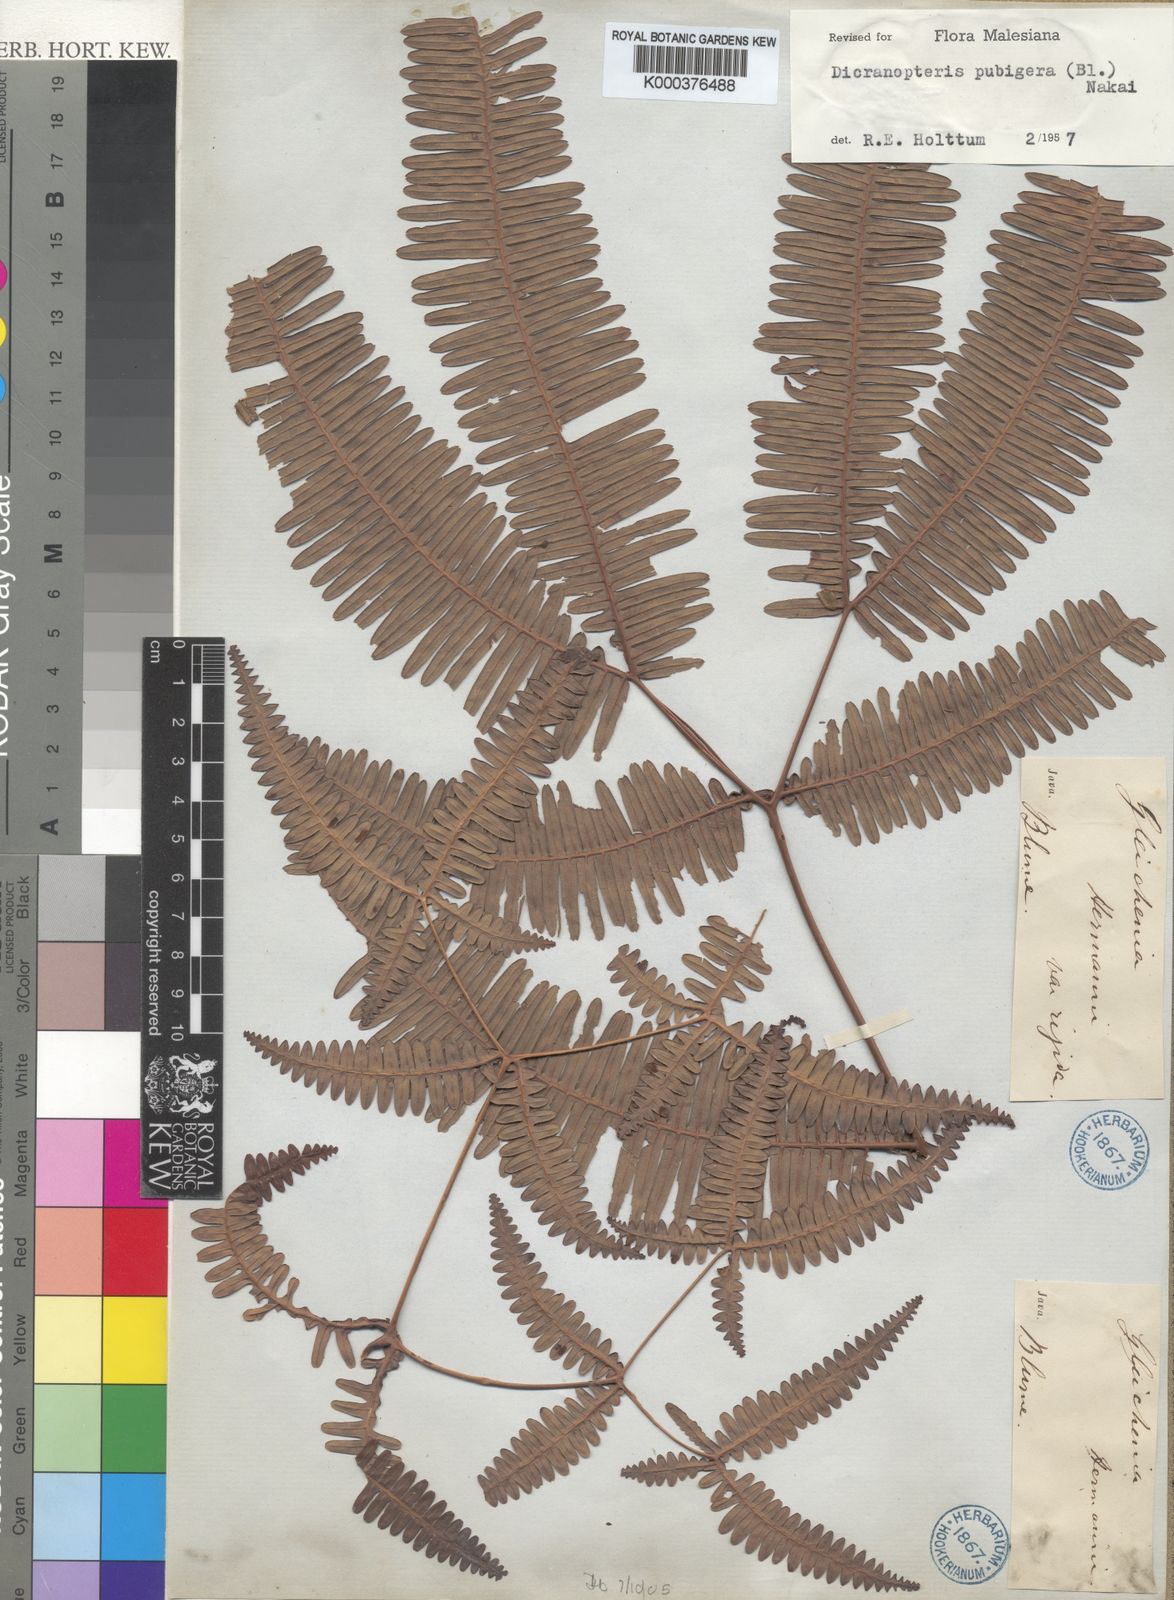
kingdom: Plantae
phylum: Tracheophyta
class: Polypodiopsida
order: Gleicheniales
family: Gleicheniaceae
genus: Dicranopteris
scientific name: Dicranopteris pubigera
